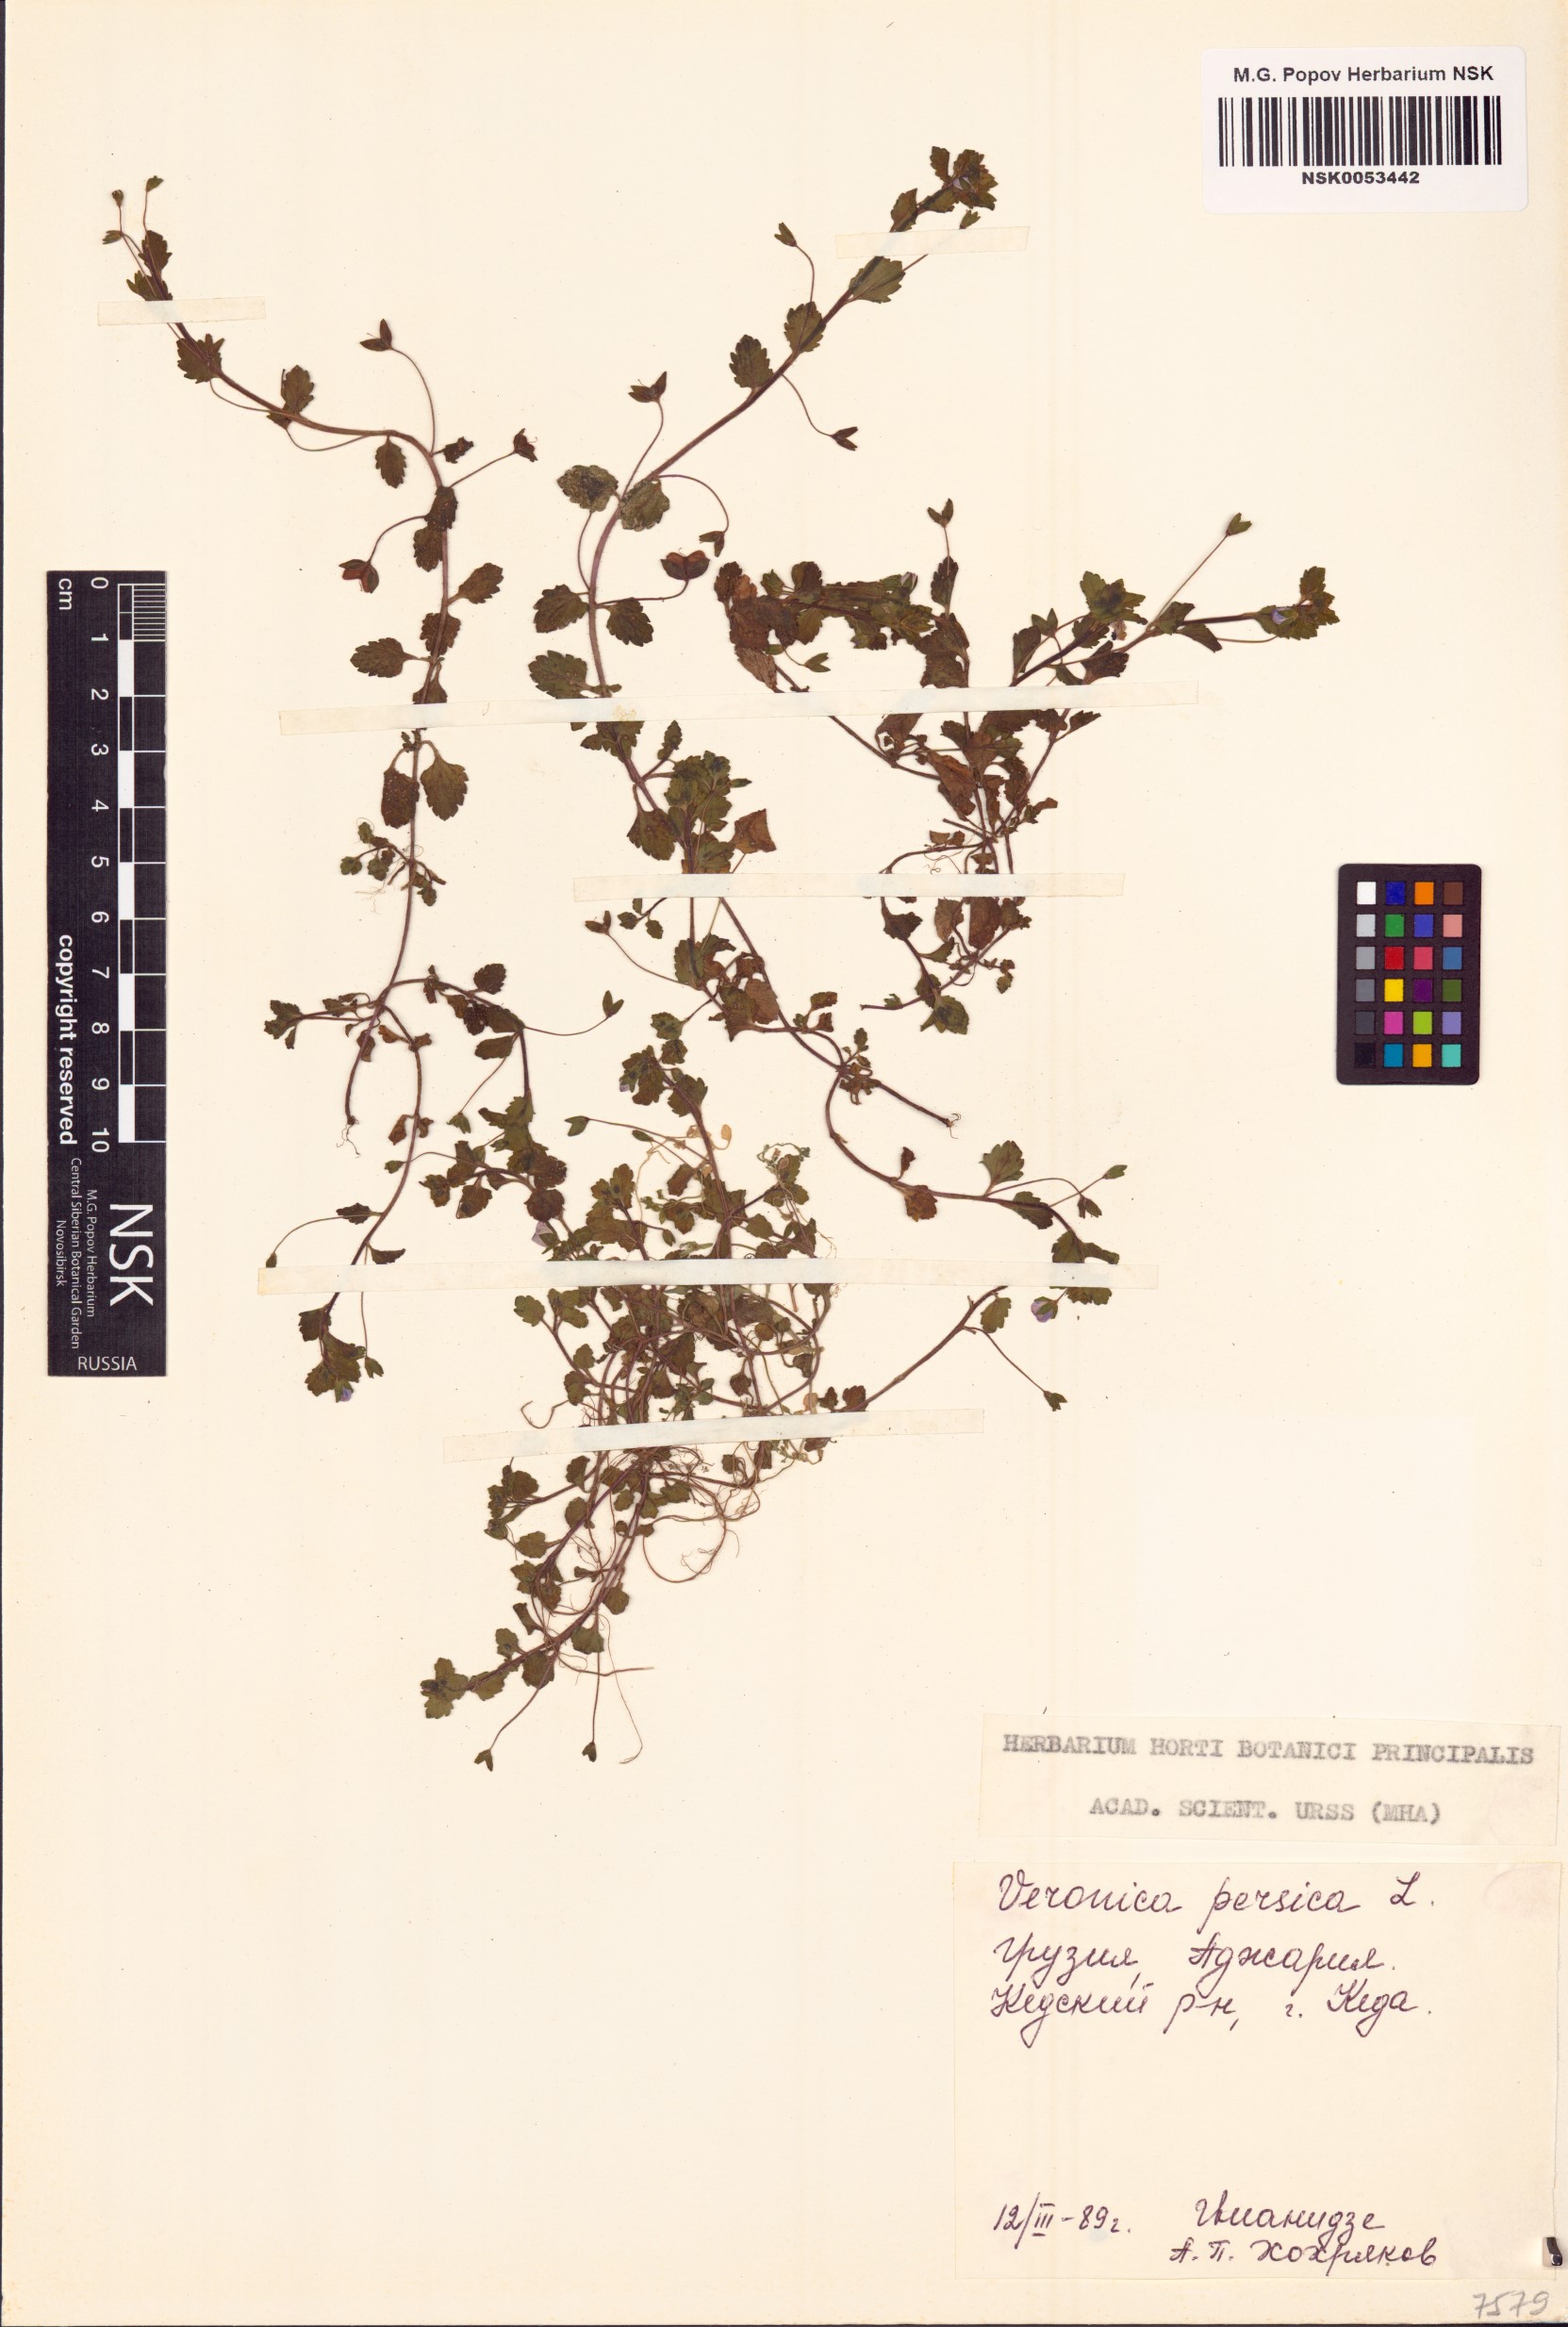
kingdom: Plantae
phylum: Tracheophyta
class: Magnoliopsida
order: Lamiales
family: Plantaginaceae
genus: Veronica
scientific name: Veronica persica
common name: Common field-speedwell
